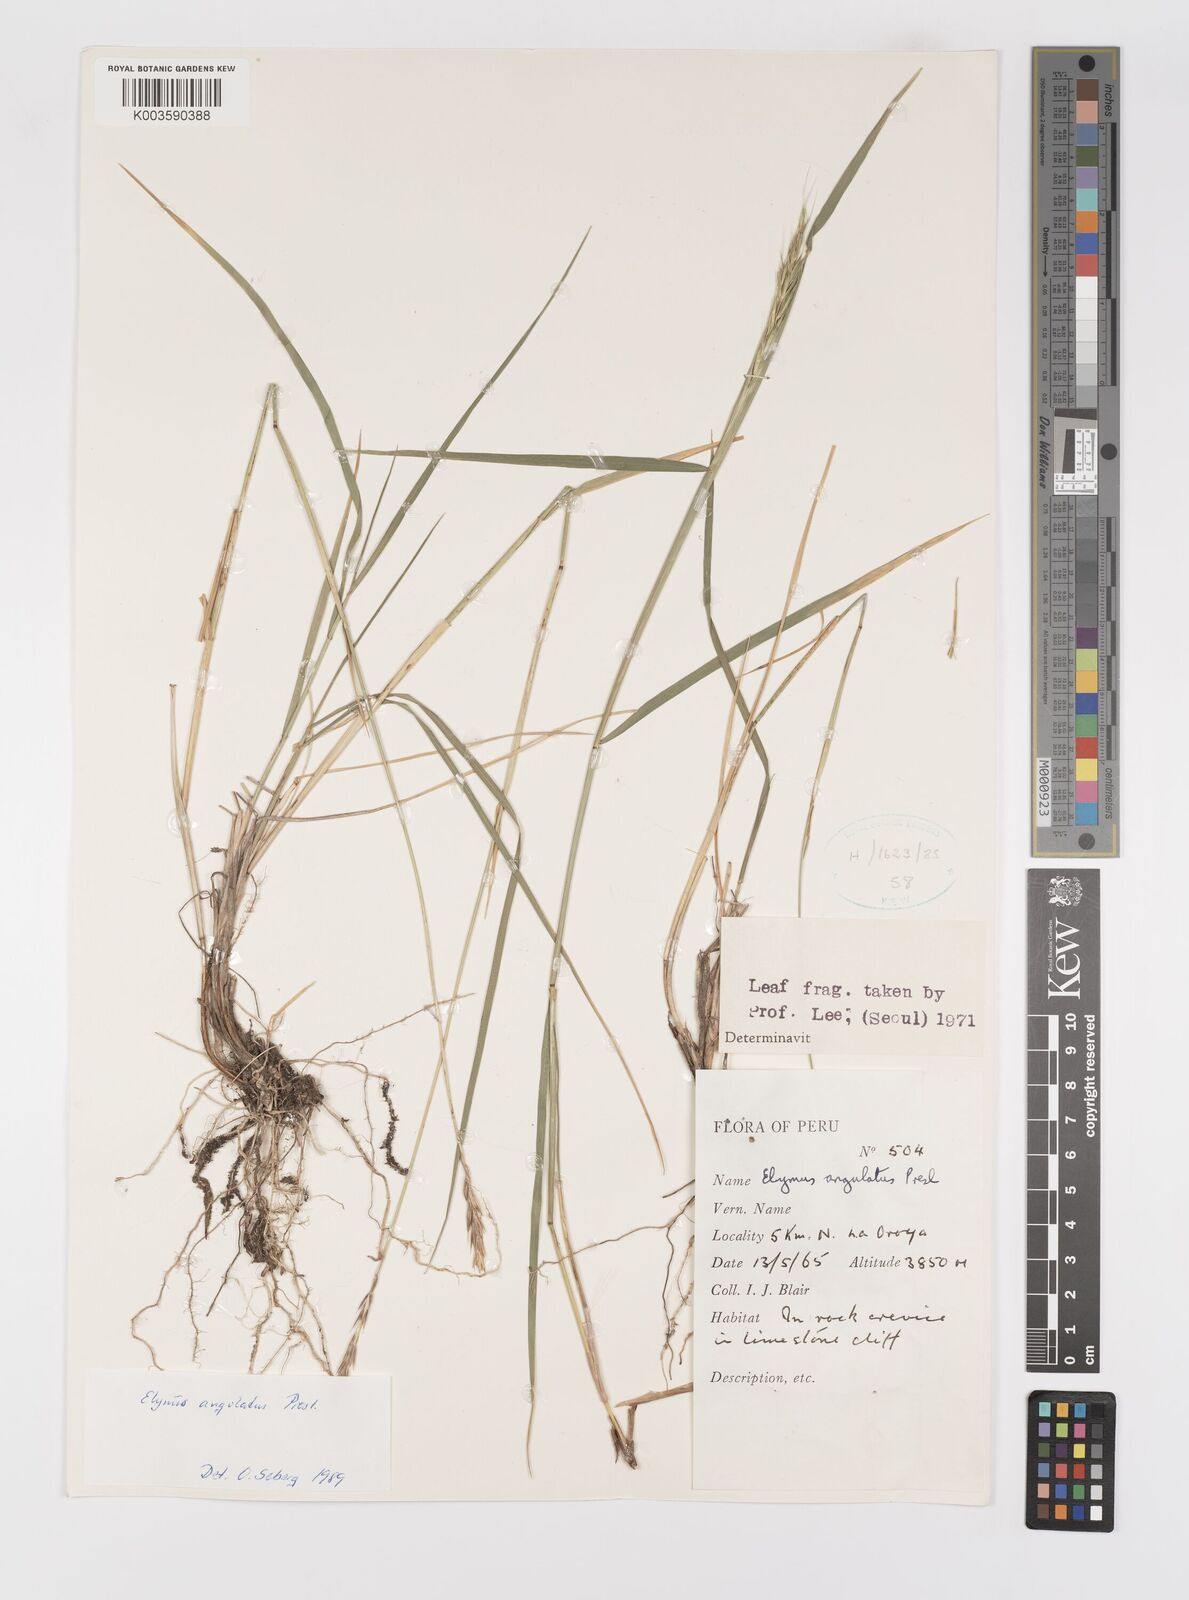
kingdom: Plantae
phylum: Tracheophyta
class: Liliopsida
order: Poales
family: Poaceae
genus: Elymus
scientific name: Elymus angulatus
